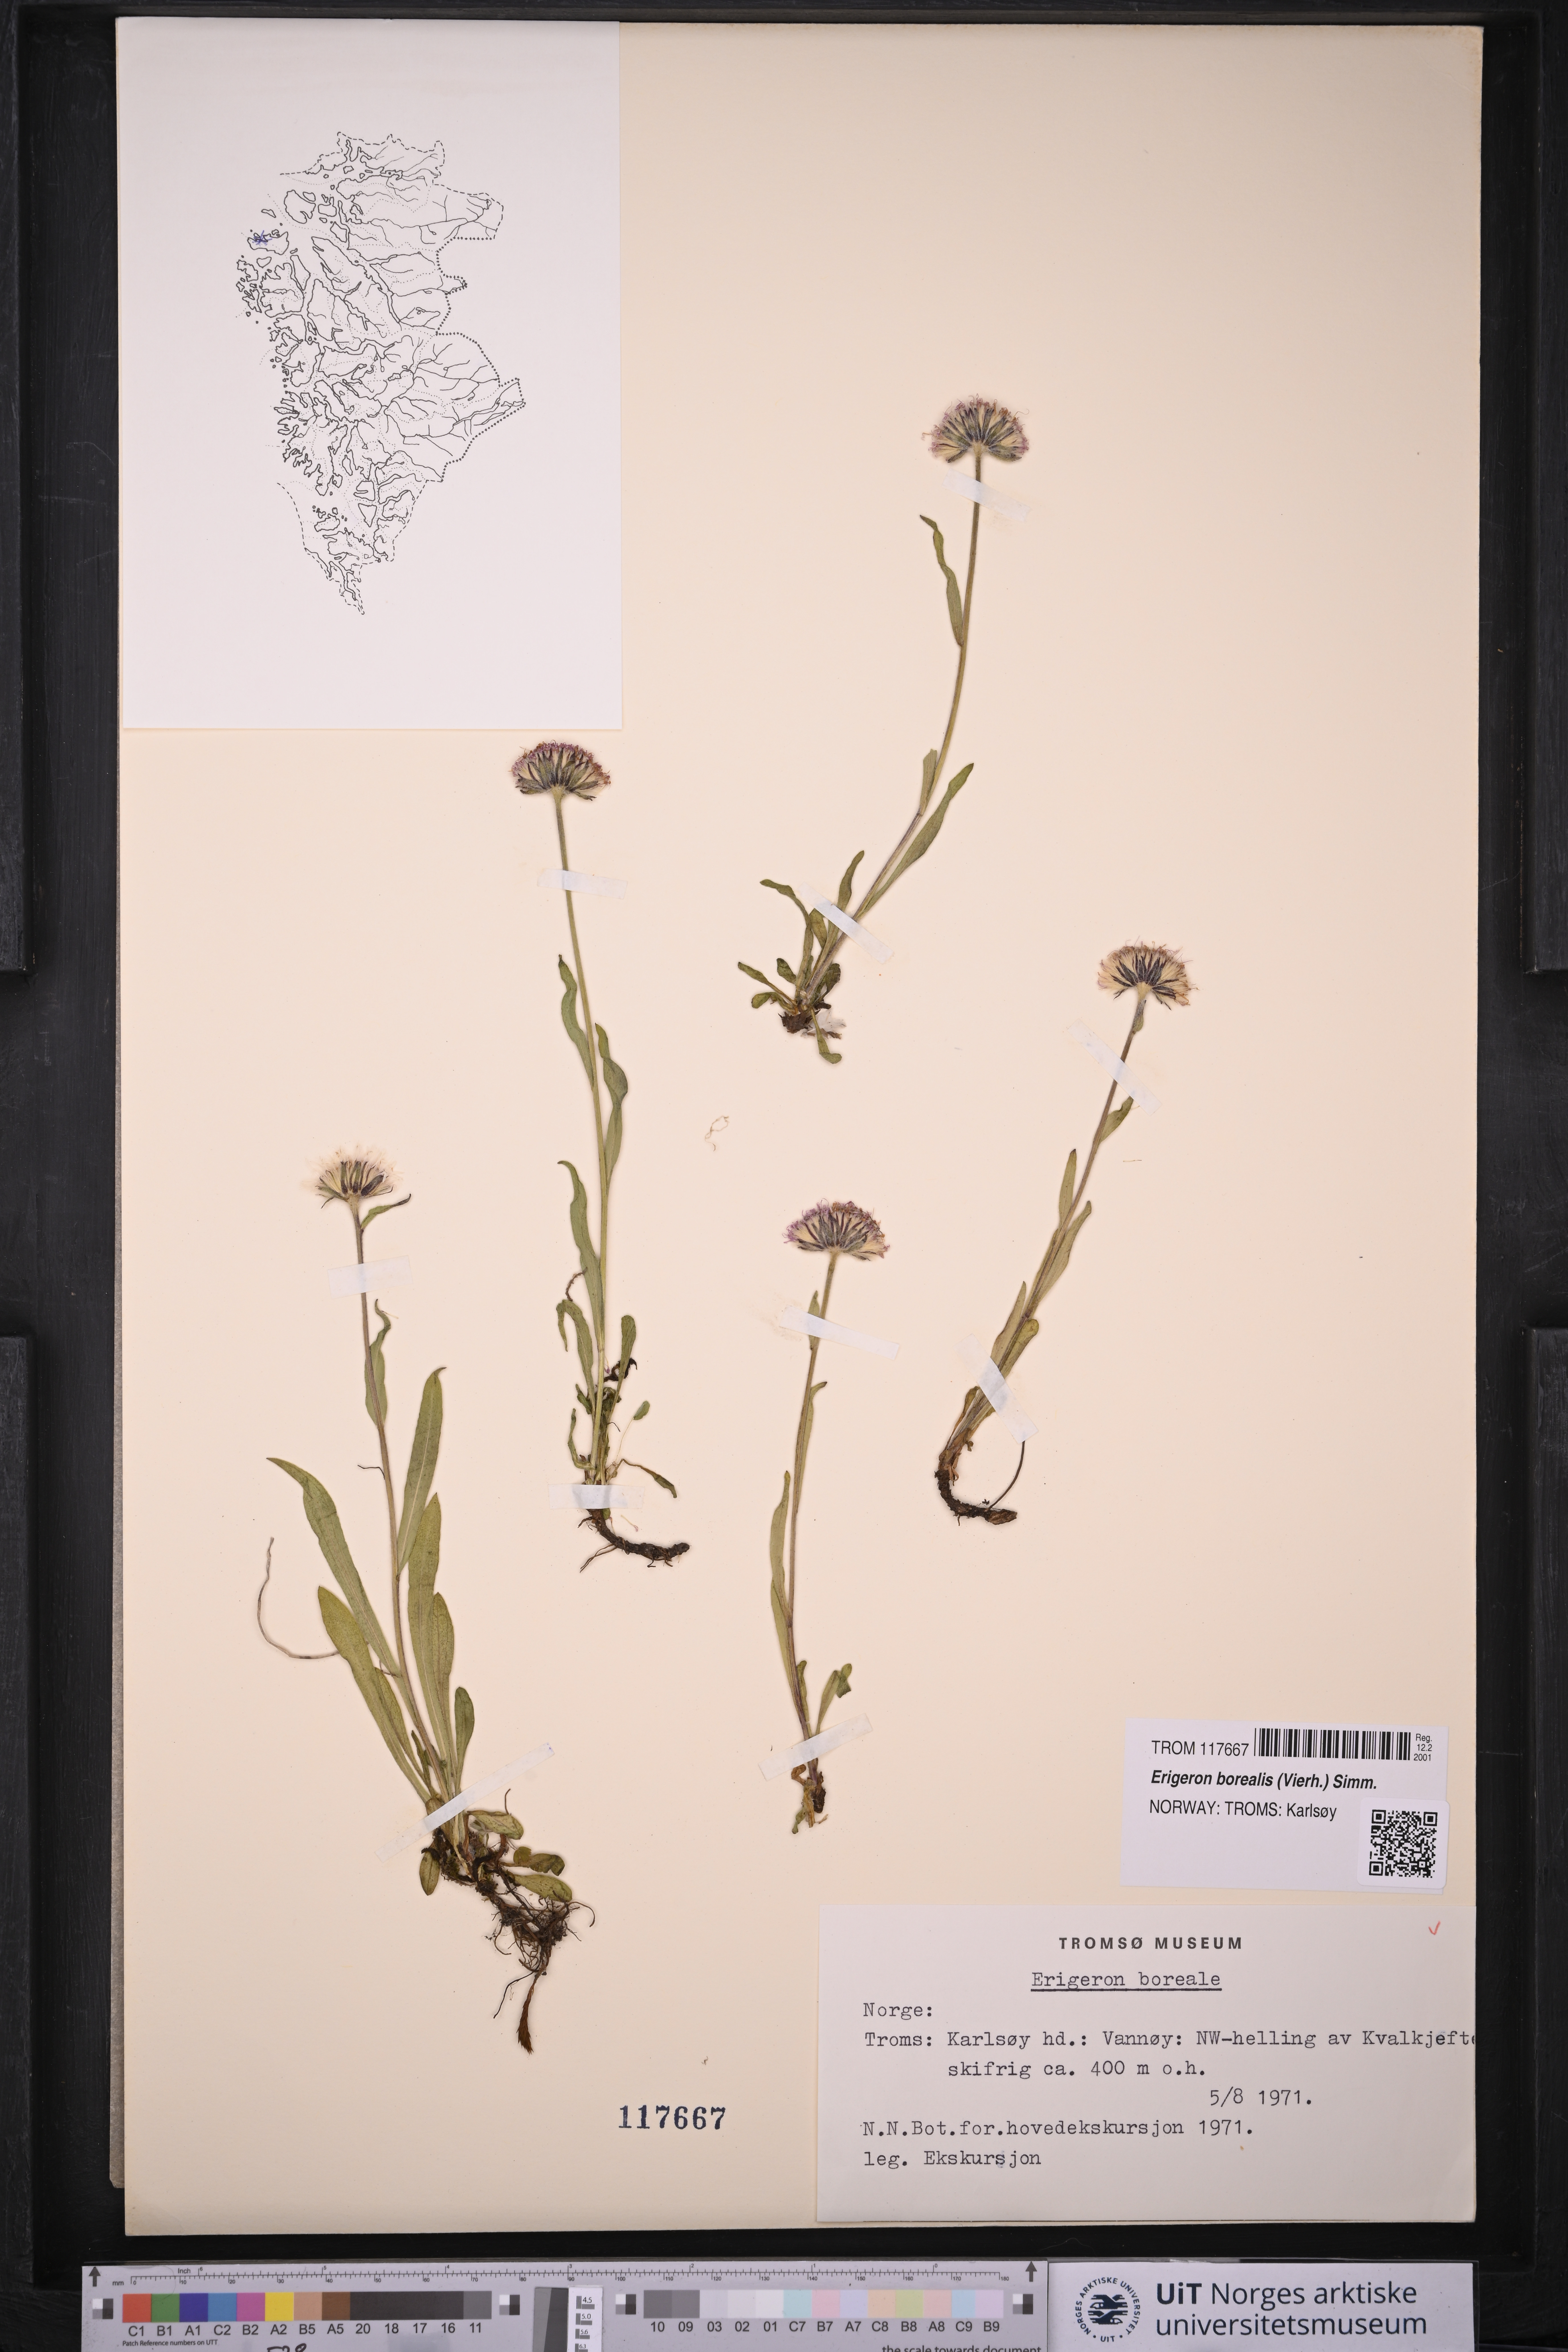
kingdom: Plantae
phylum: Tracheophyta
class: Magnoliopsida
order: Asterales
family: Asteraceae
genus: Erigeron
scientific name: Erigeron borealis
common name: Alpine fleabane
